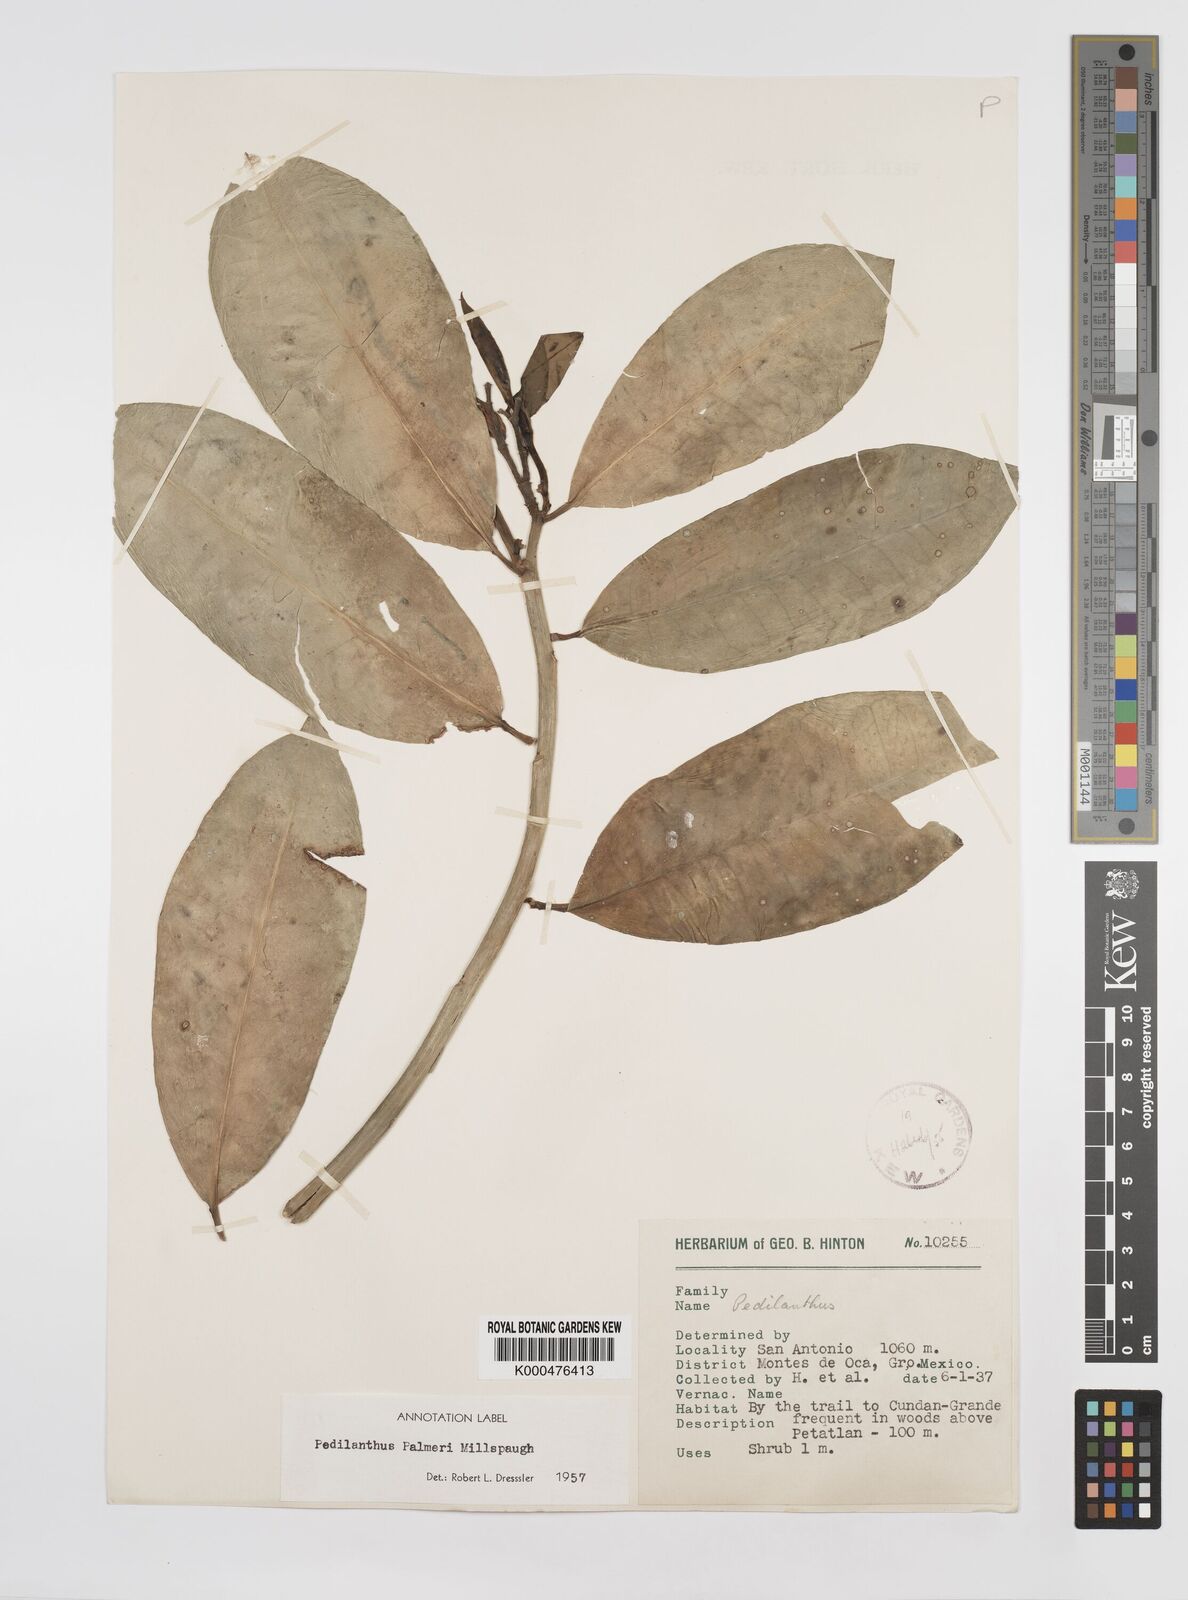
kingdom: Plantae
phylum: Tracheophyta
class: Magnoliopsida
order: Malpighiales
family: Euphorbiaceae
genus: Euphorbia
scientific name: Euphorbia peritropoides
